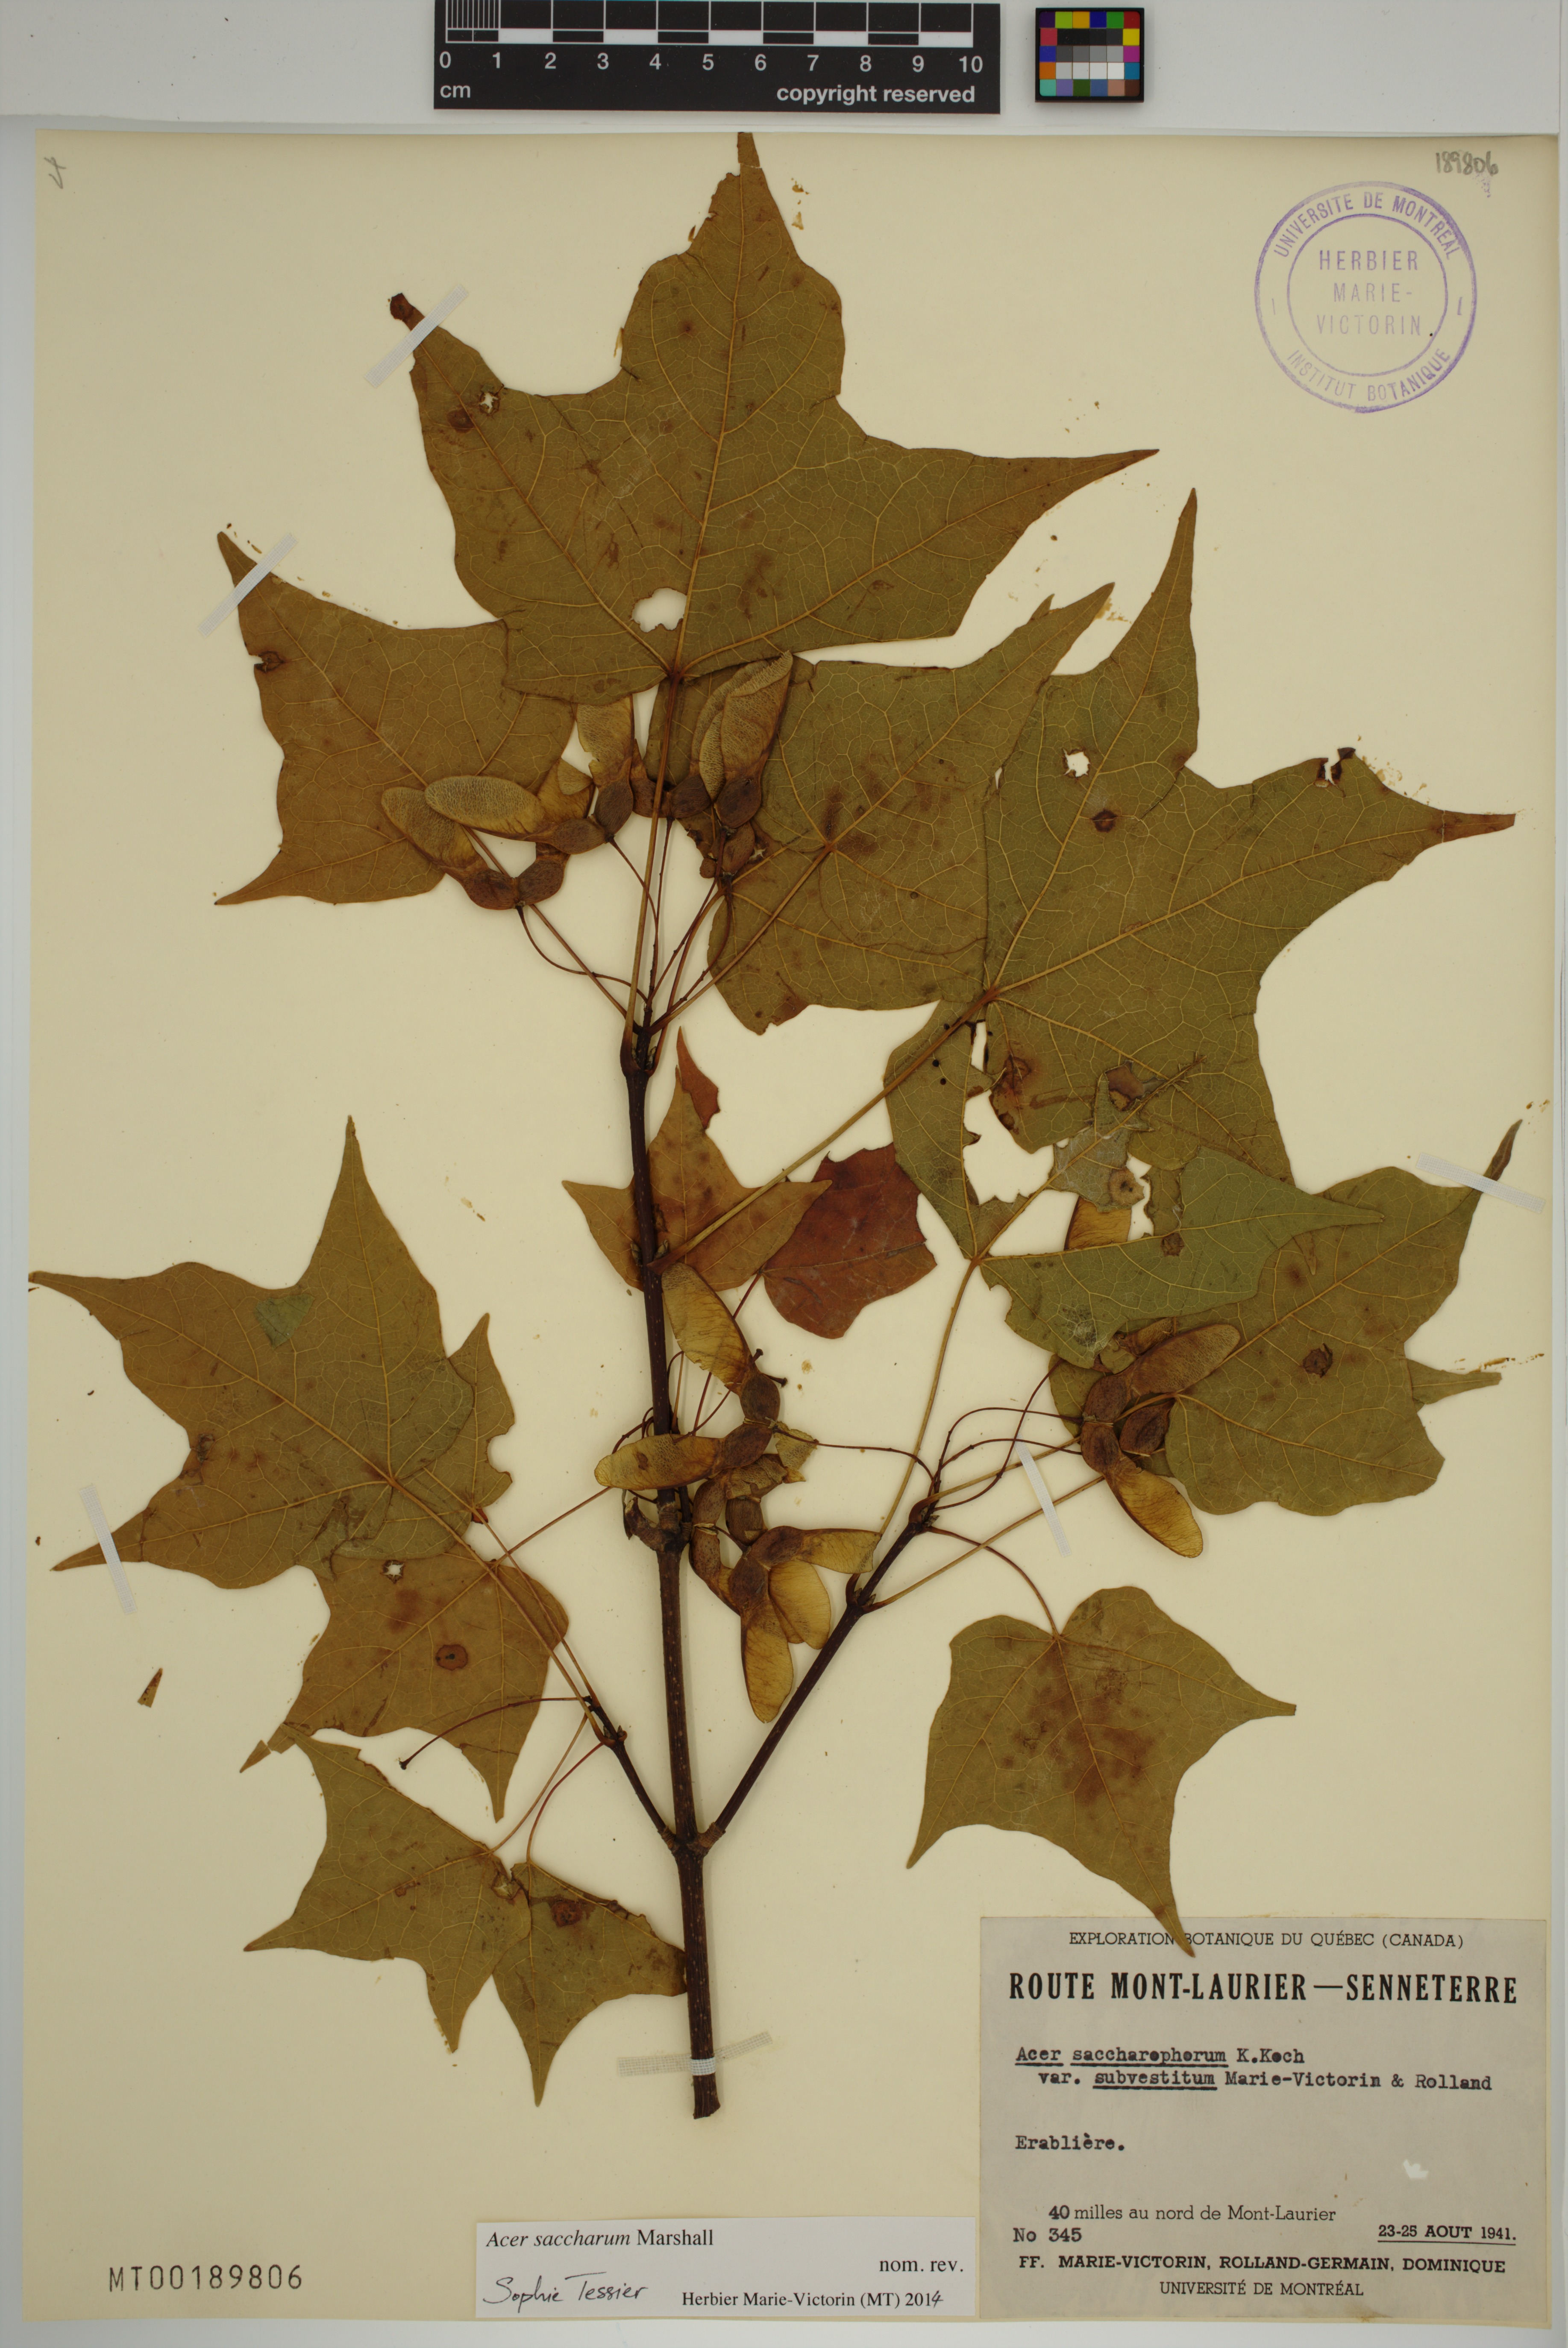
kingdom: Plantae
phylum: Tracheophyta
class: Magnoliopsida
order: Sapindales
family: Sapindaceae
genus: Acer
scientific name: Acer saccharum
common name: Sugar maple
